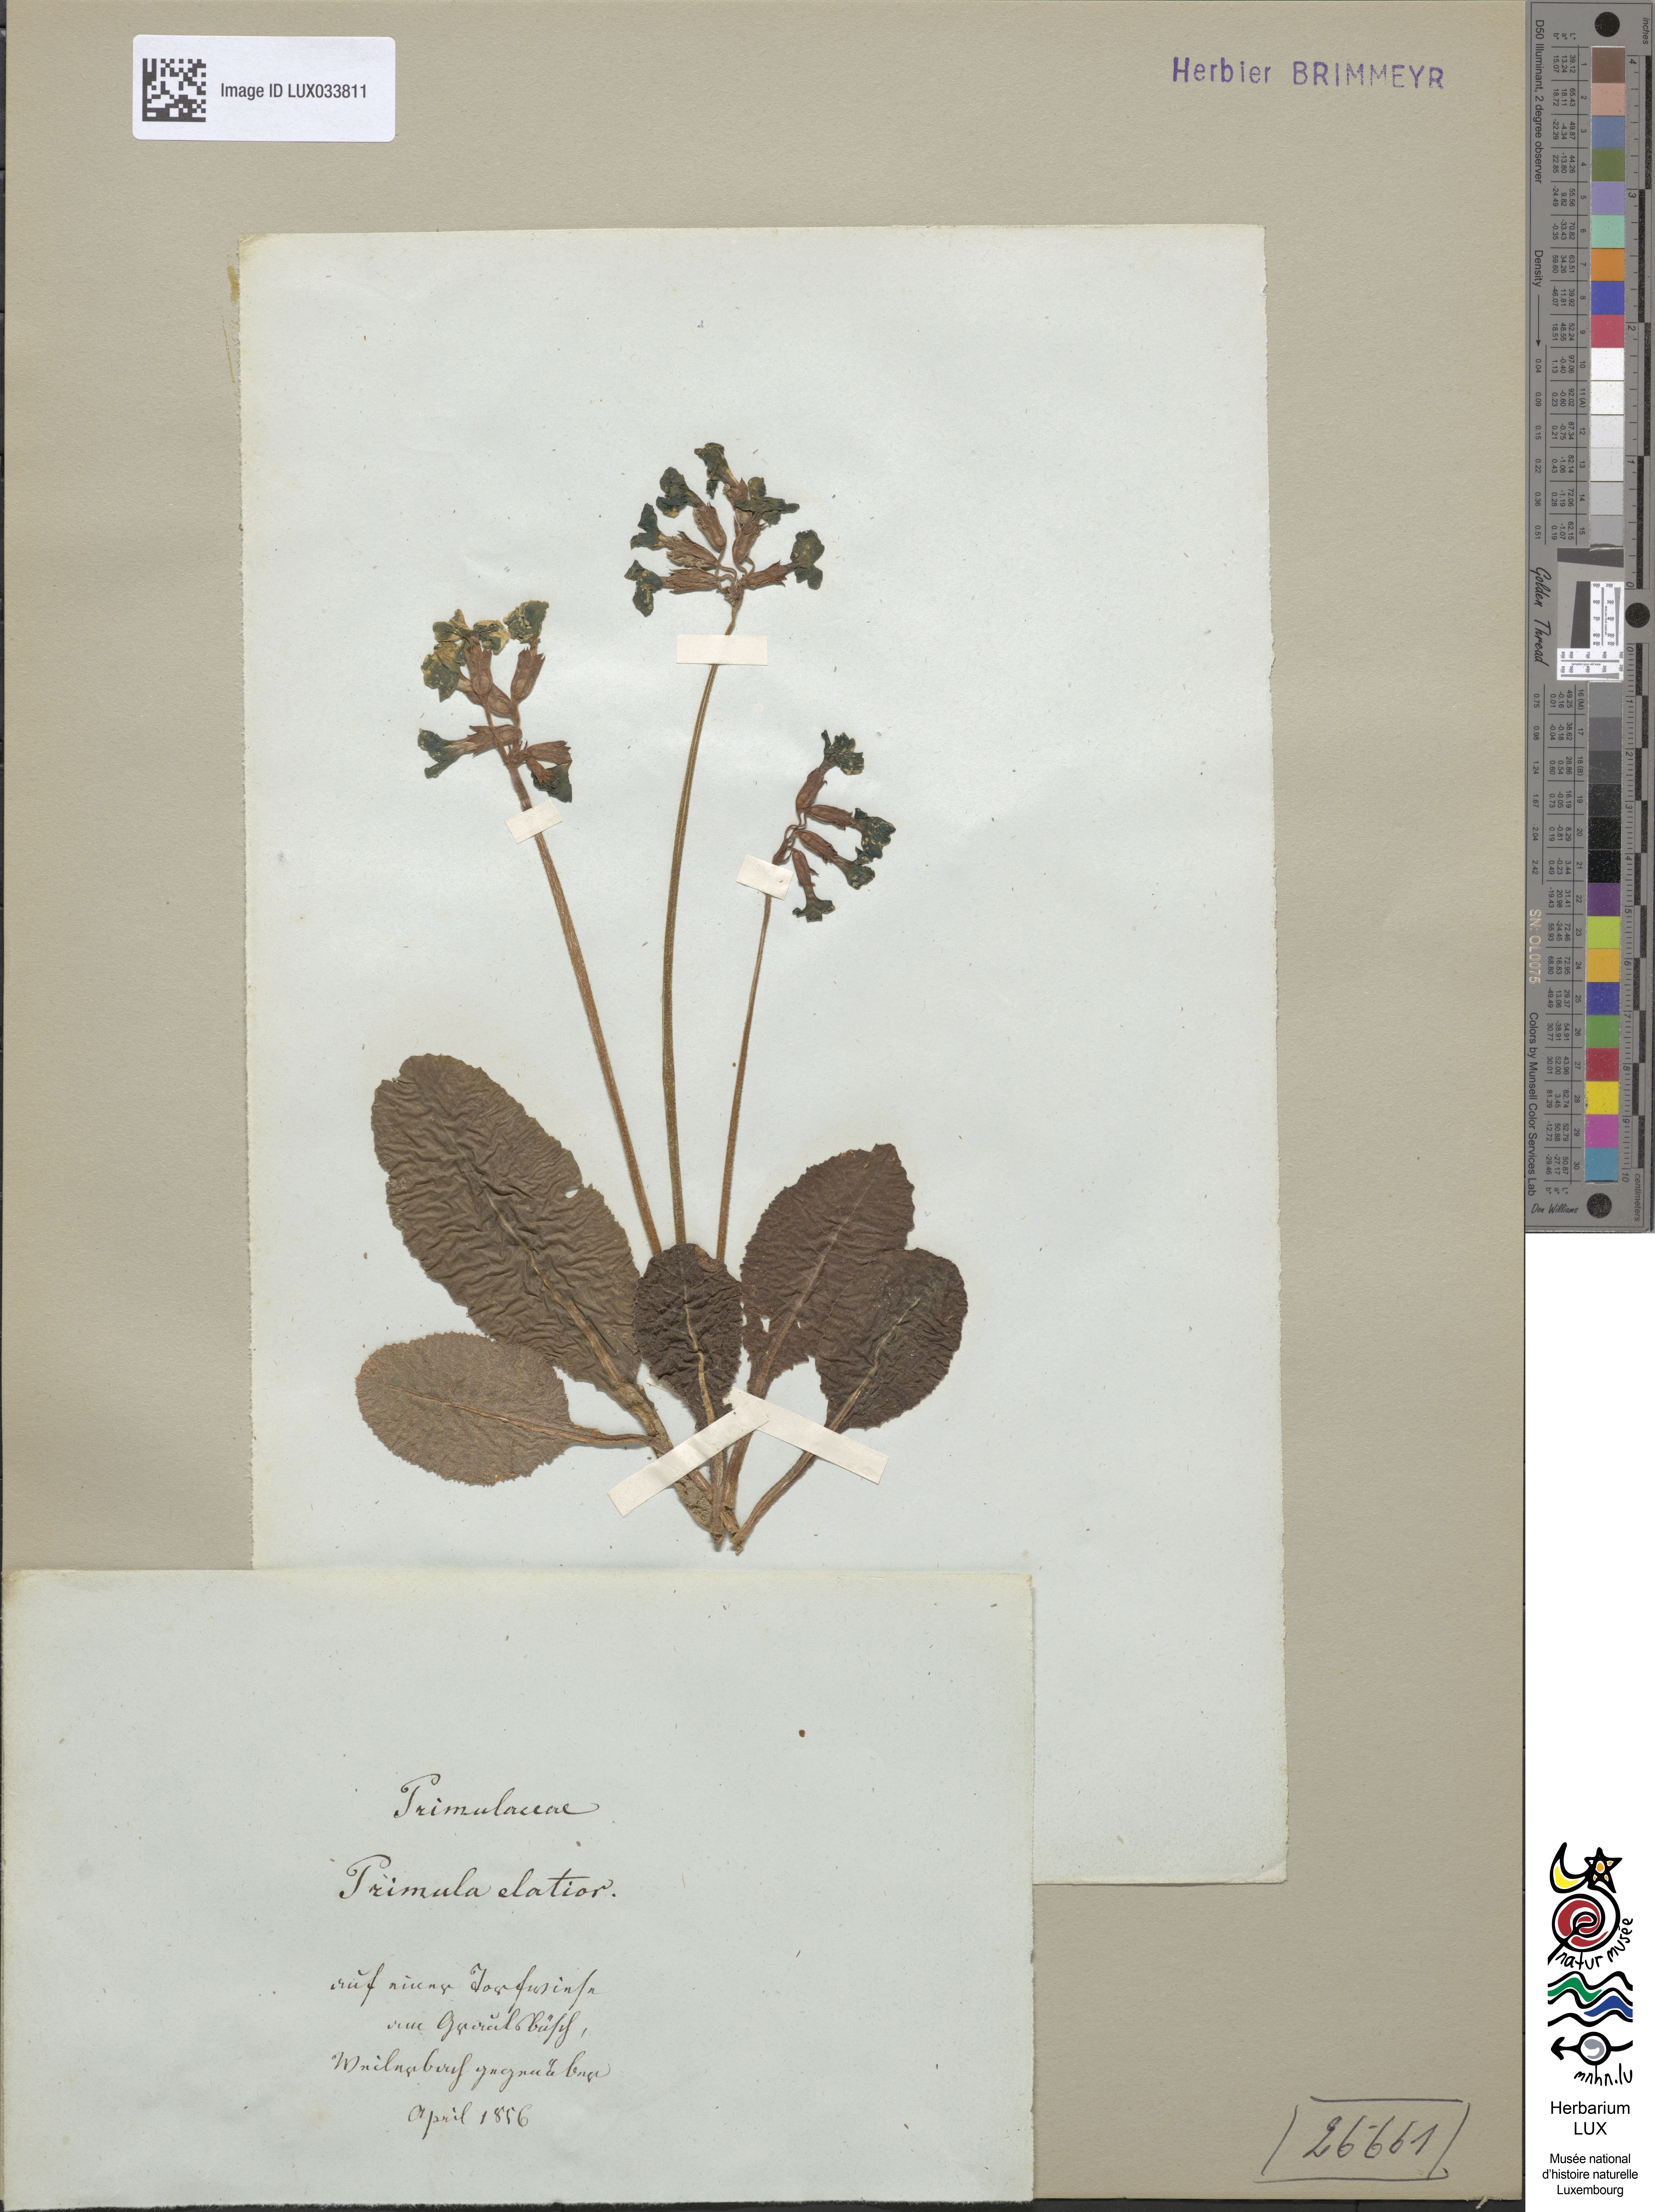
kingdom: Plantae
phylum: Tracheophyta
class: Magnoliopsida
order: Ericales
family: Primulaceae
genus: Primula
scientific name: Primula elatior
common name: Oxlip
